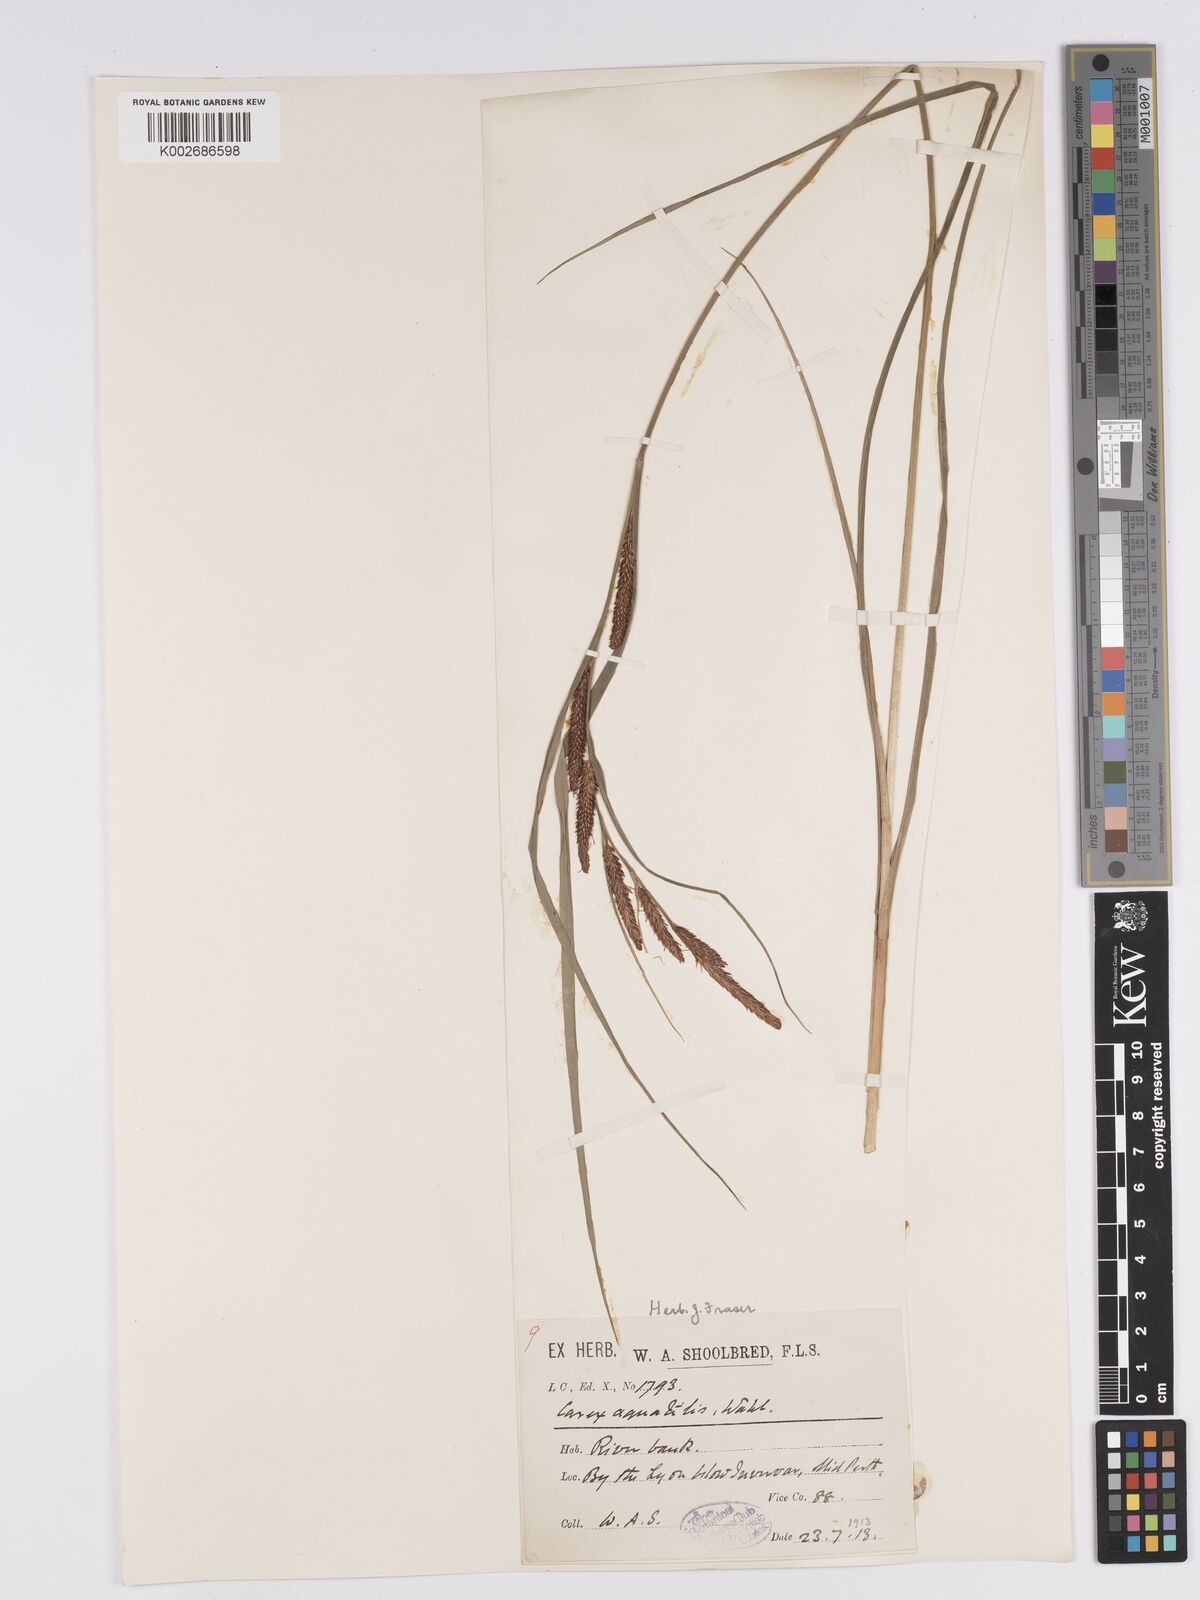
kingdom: Plantae
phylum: Tracheophyta
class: Liliopsida
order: Poales
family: Cyperaceae
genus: Carex
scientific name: Carex aquatilis
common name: Water sedge
